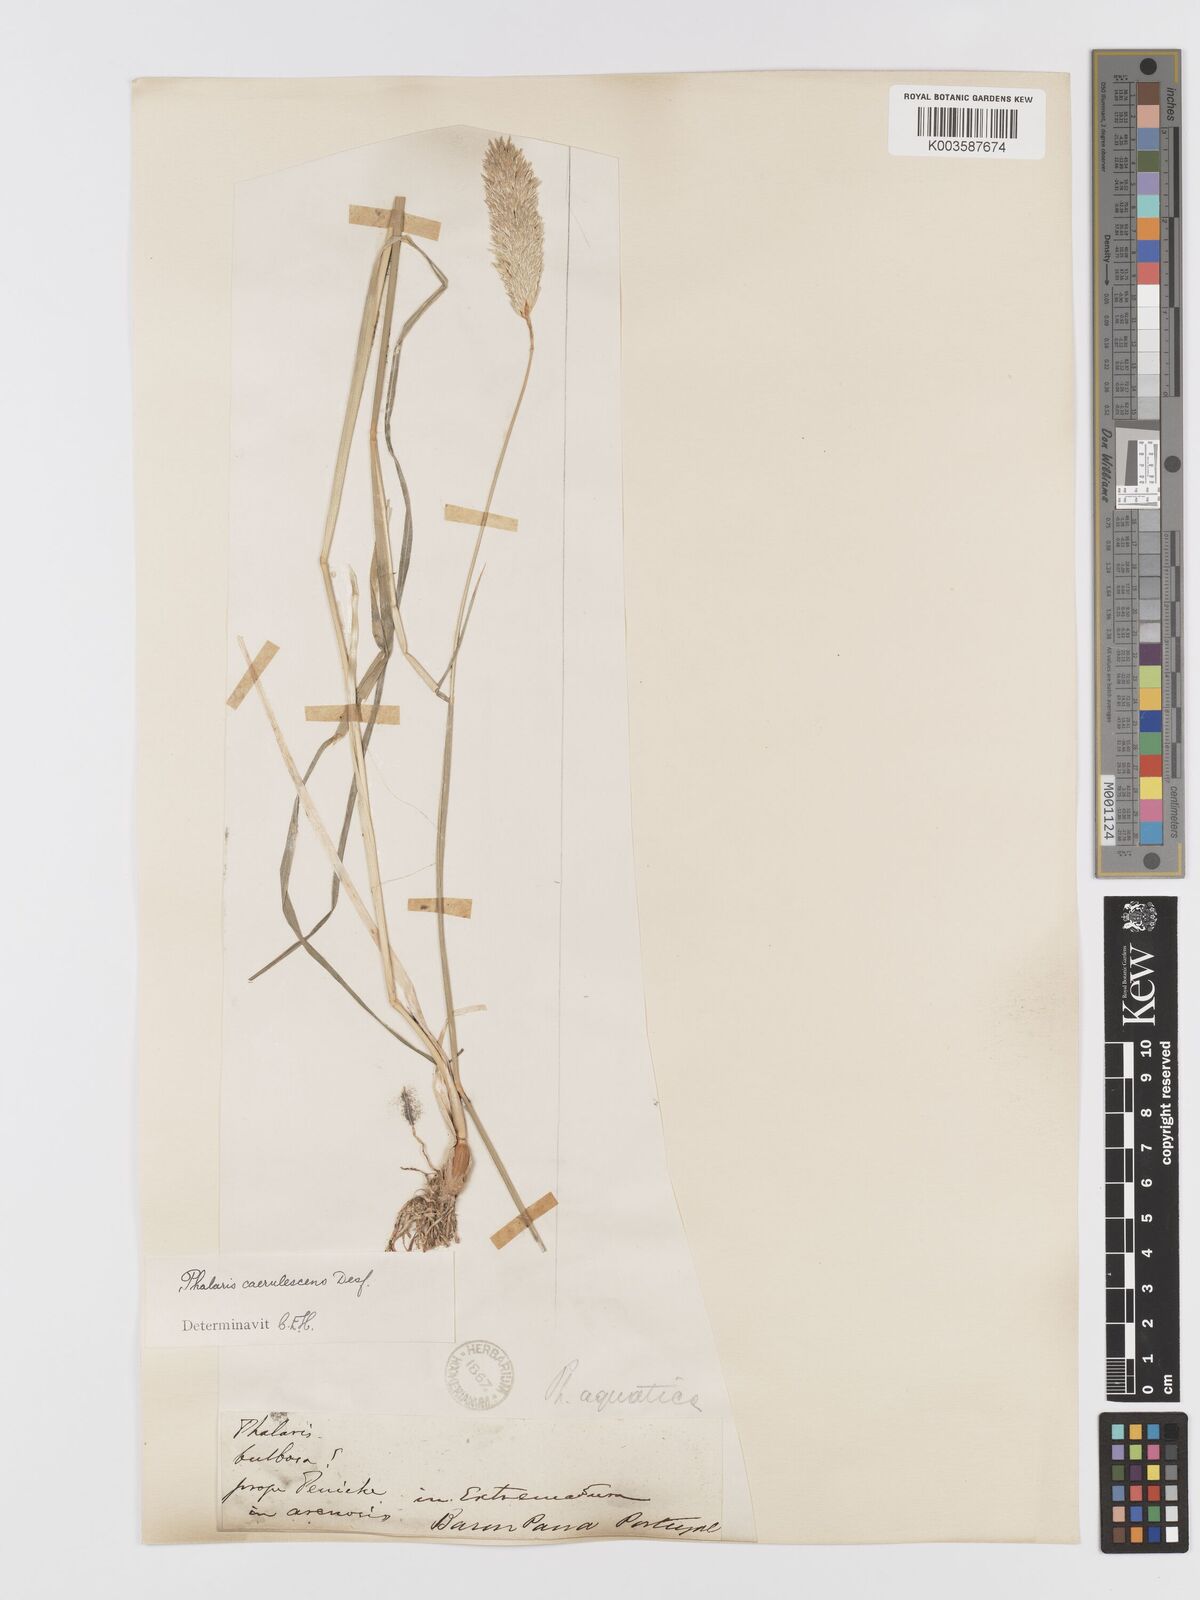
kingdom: Plantae
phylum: Tracheophyta
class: Liliopsida
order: Poales
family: Poaceae
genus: Phalaris
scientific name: Phalaris coerulescens
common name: Sunolgrass
